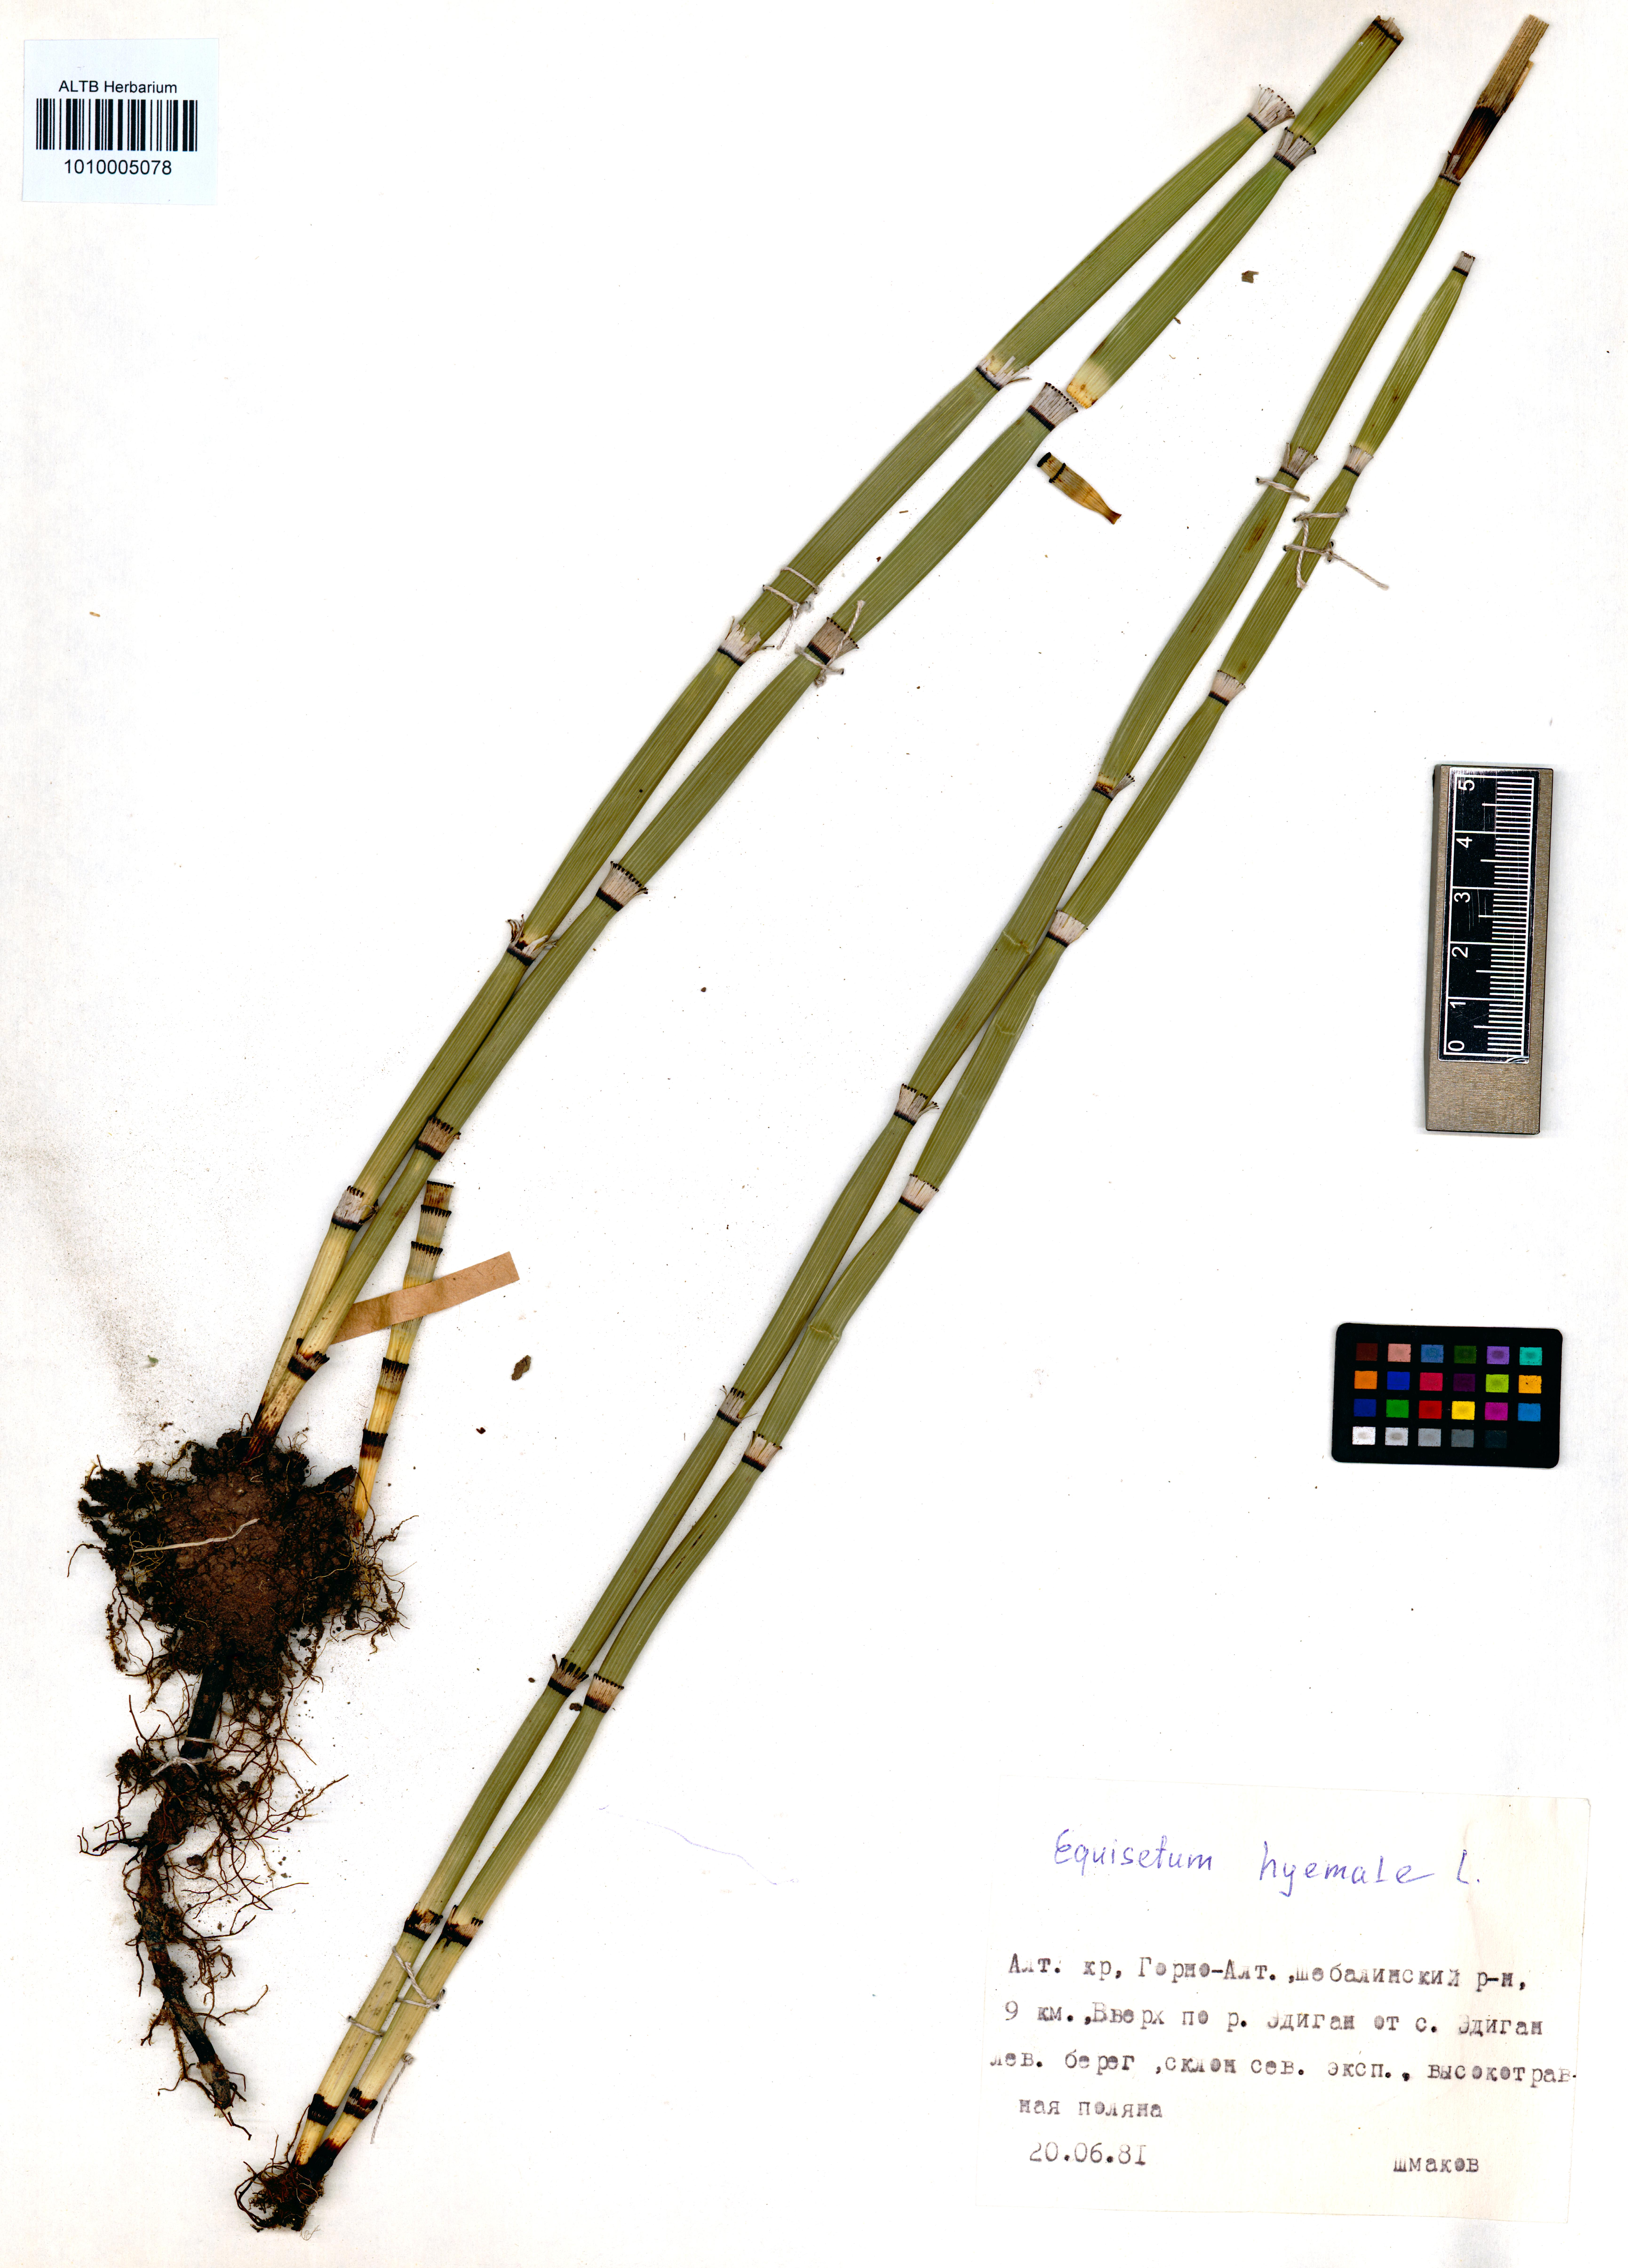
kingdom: Plantae
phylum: Tracheophyta
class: Polypodiopsida
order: Equisetales
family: Equisetaceae
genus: Equisetum
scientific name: Equisetum hyemale
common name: Rough horsetail
